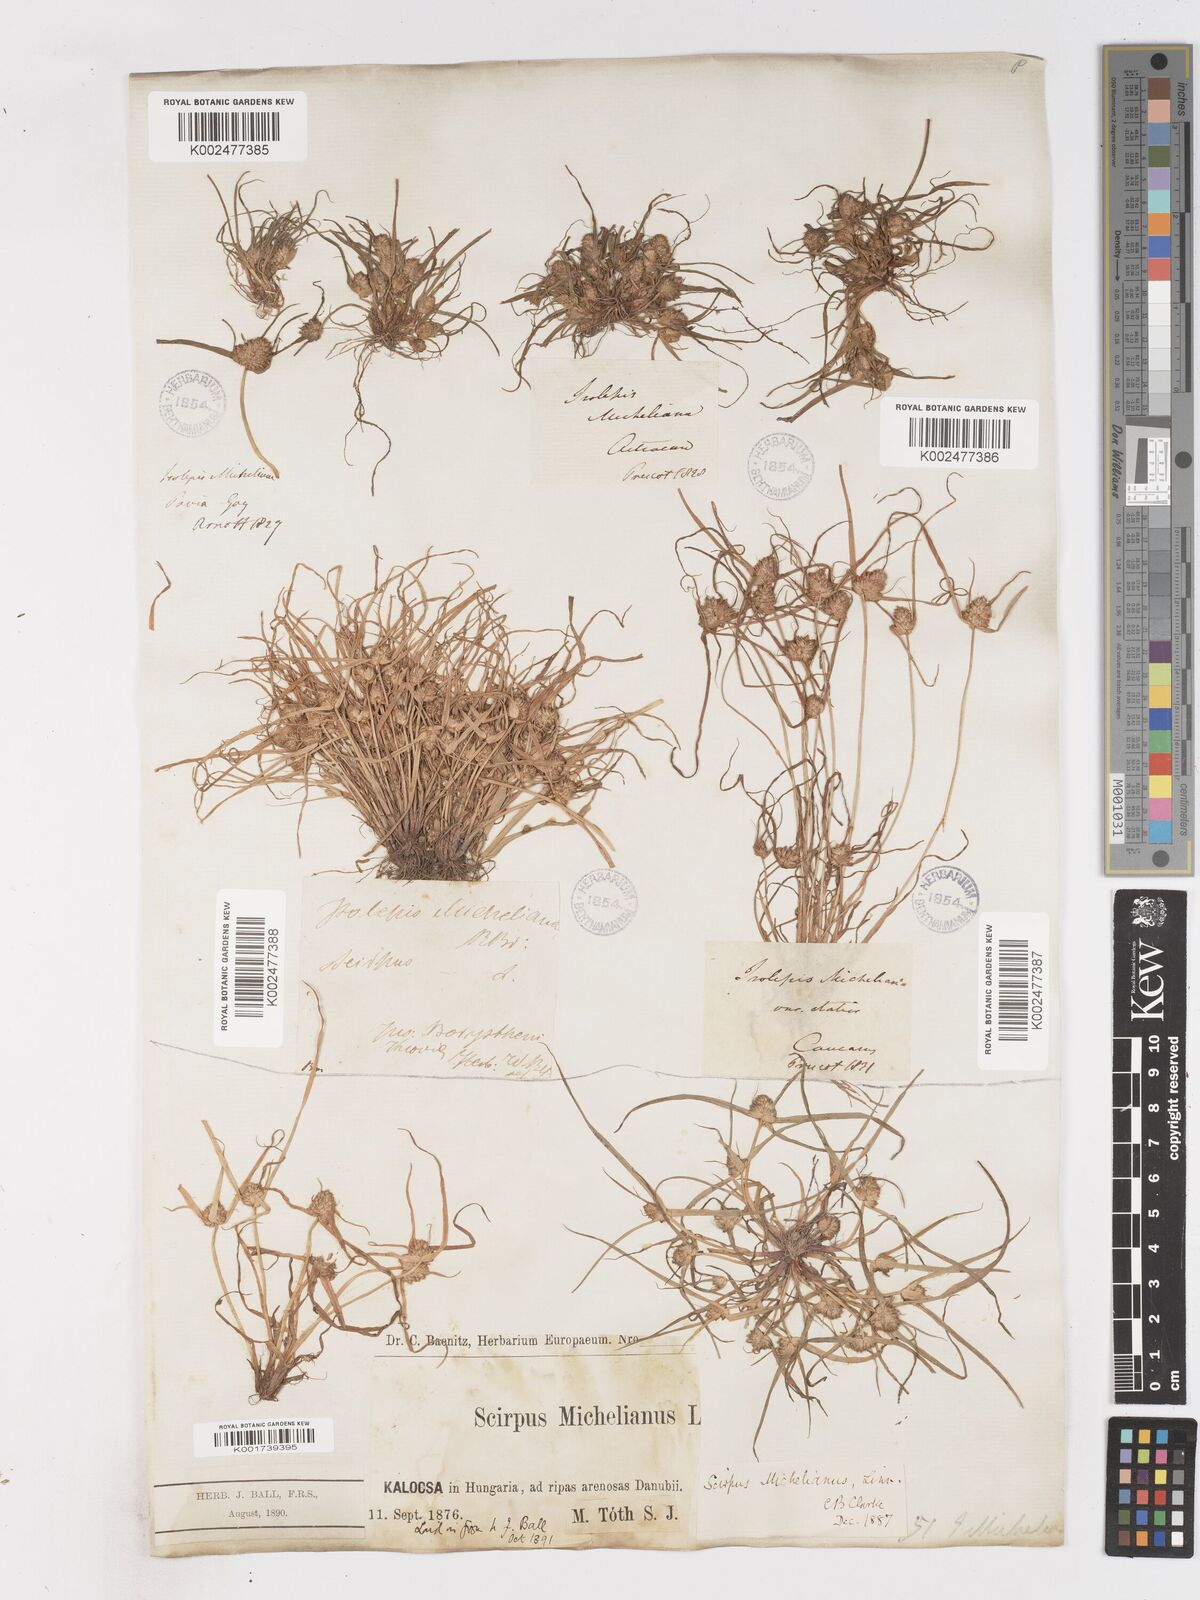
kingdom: Plantae
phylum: Tracheophyta
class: Liliopsida
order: Poales
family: Cyperaceae
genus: Cyperus
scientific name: Cyperus michelianus
